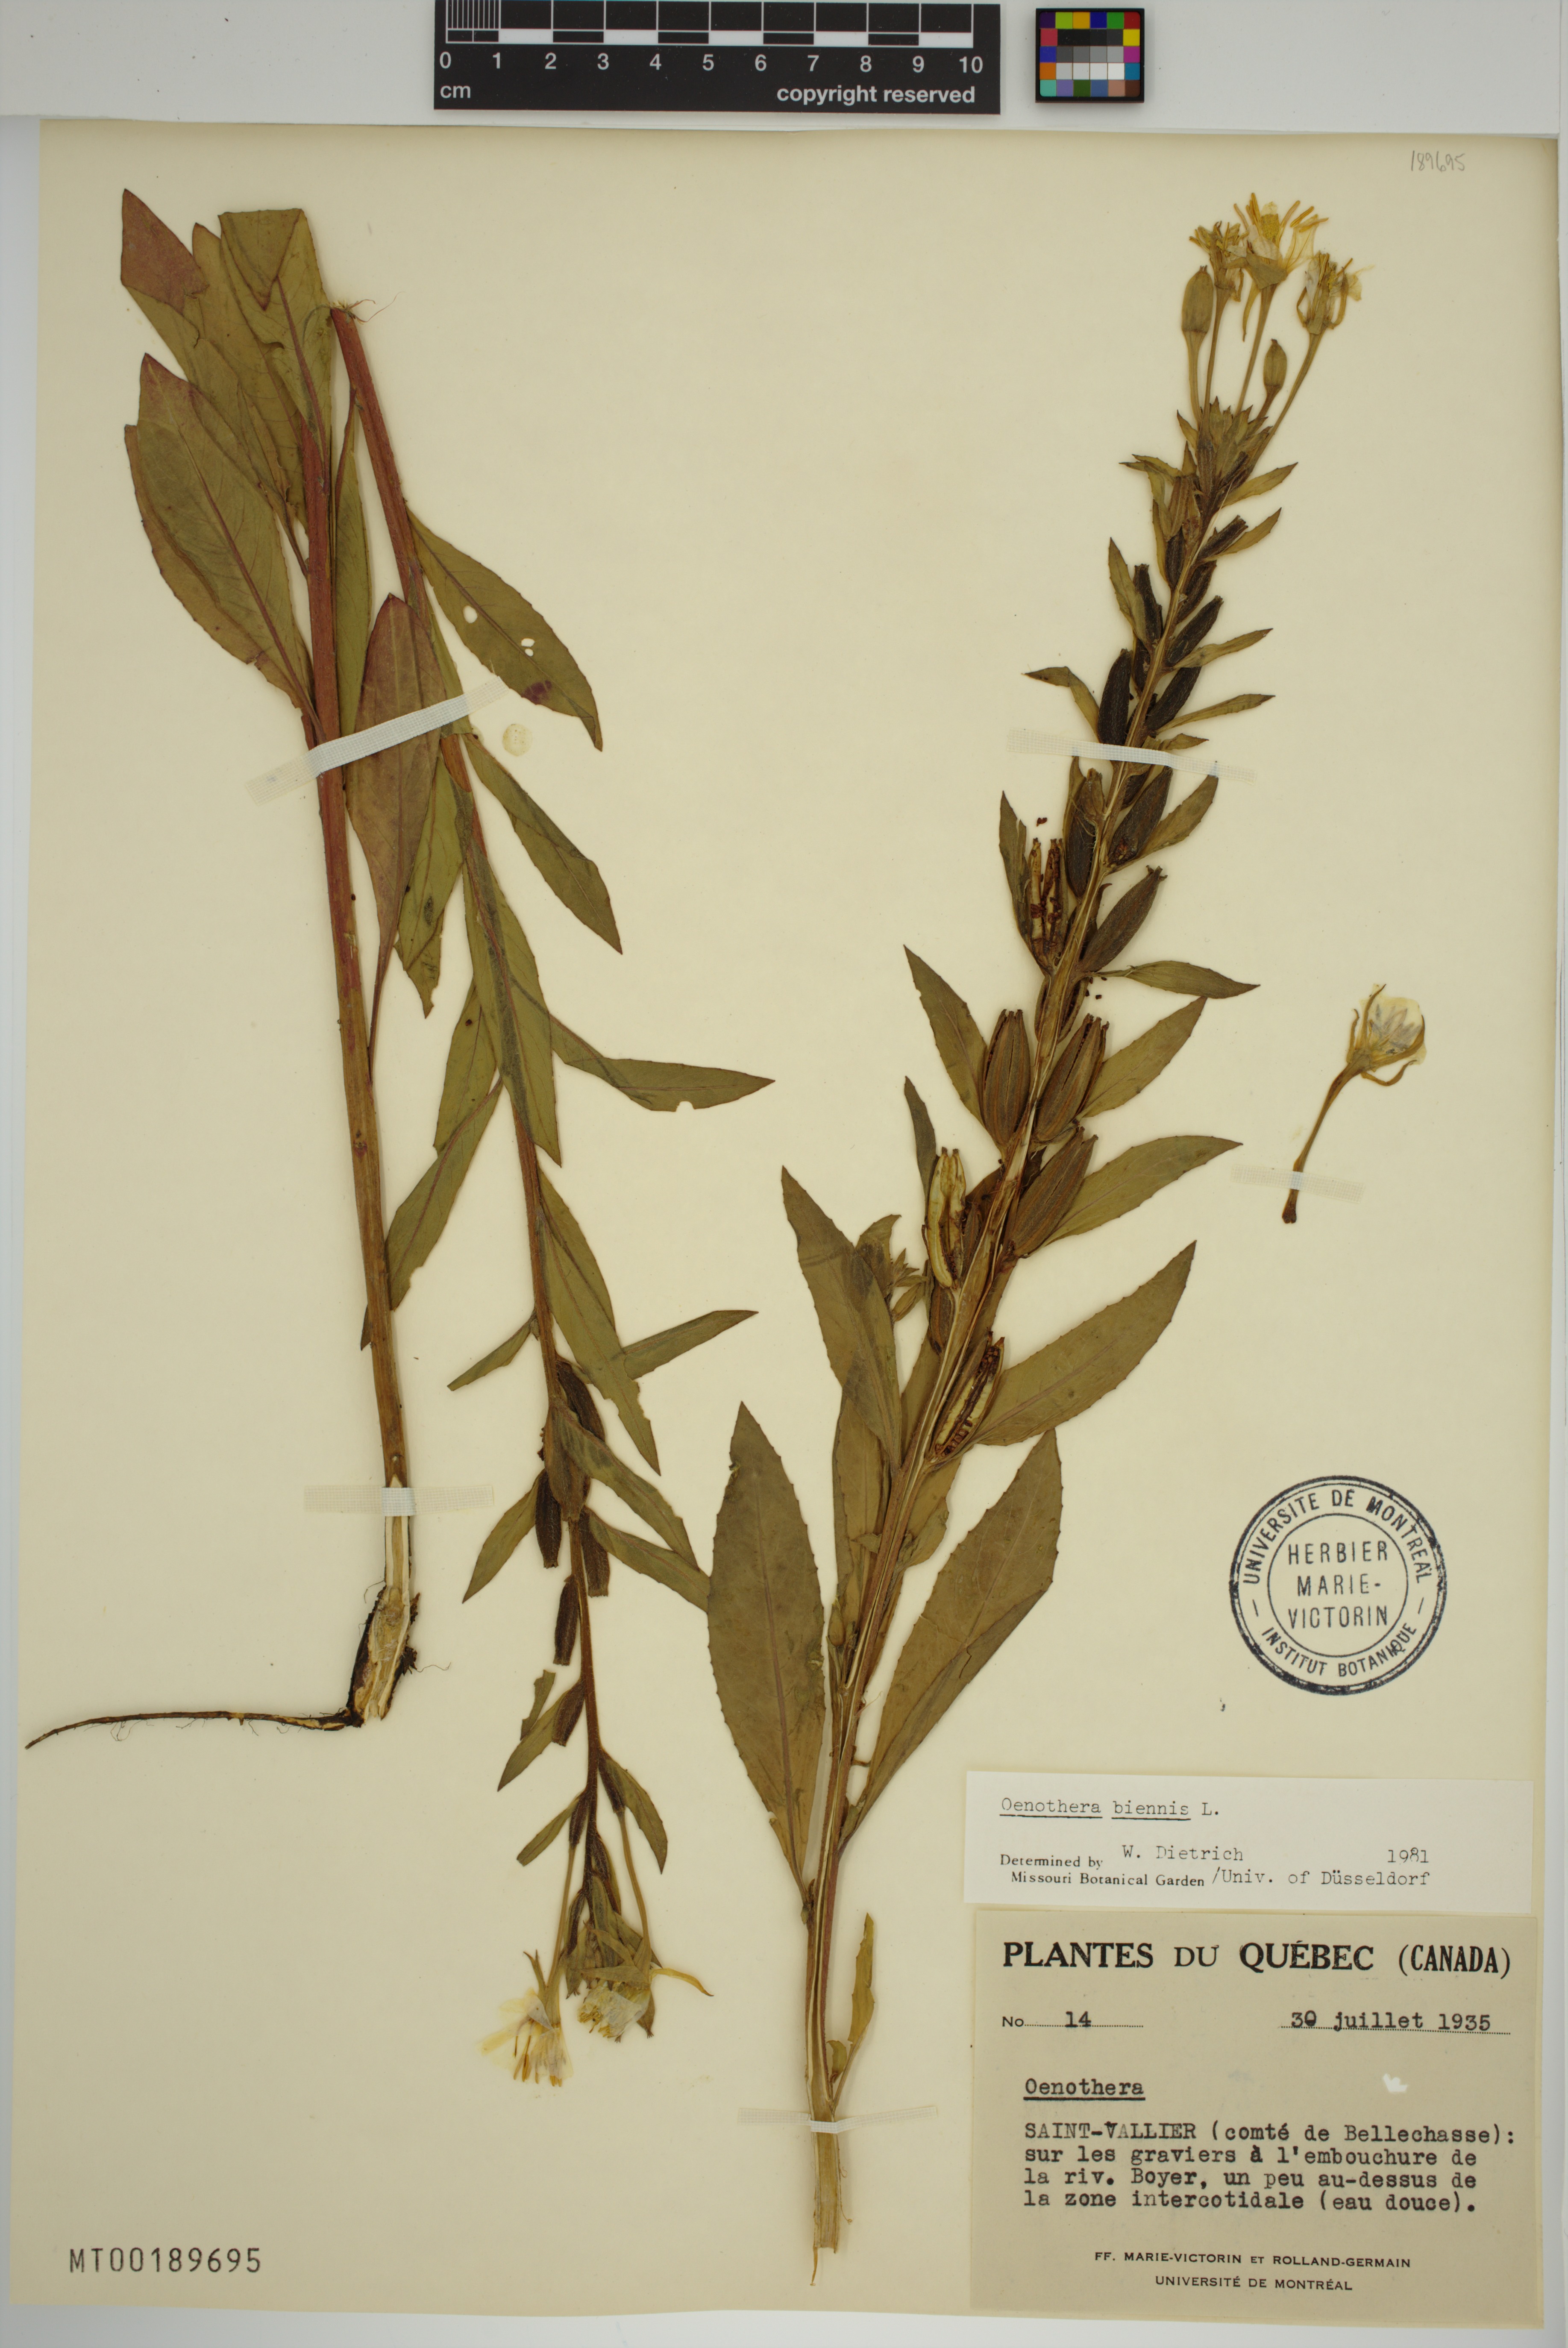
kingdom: Plantae
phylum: Tracheophyta
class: Magnoliopsida
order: Myrtales
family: Onagraceae
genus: Oenothera
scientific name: Oenothera biennis
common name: Common evening-primrose
